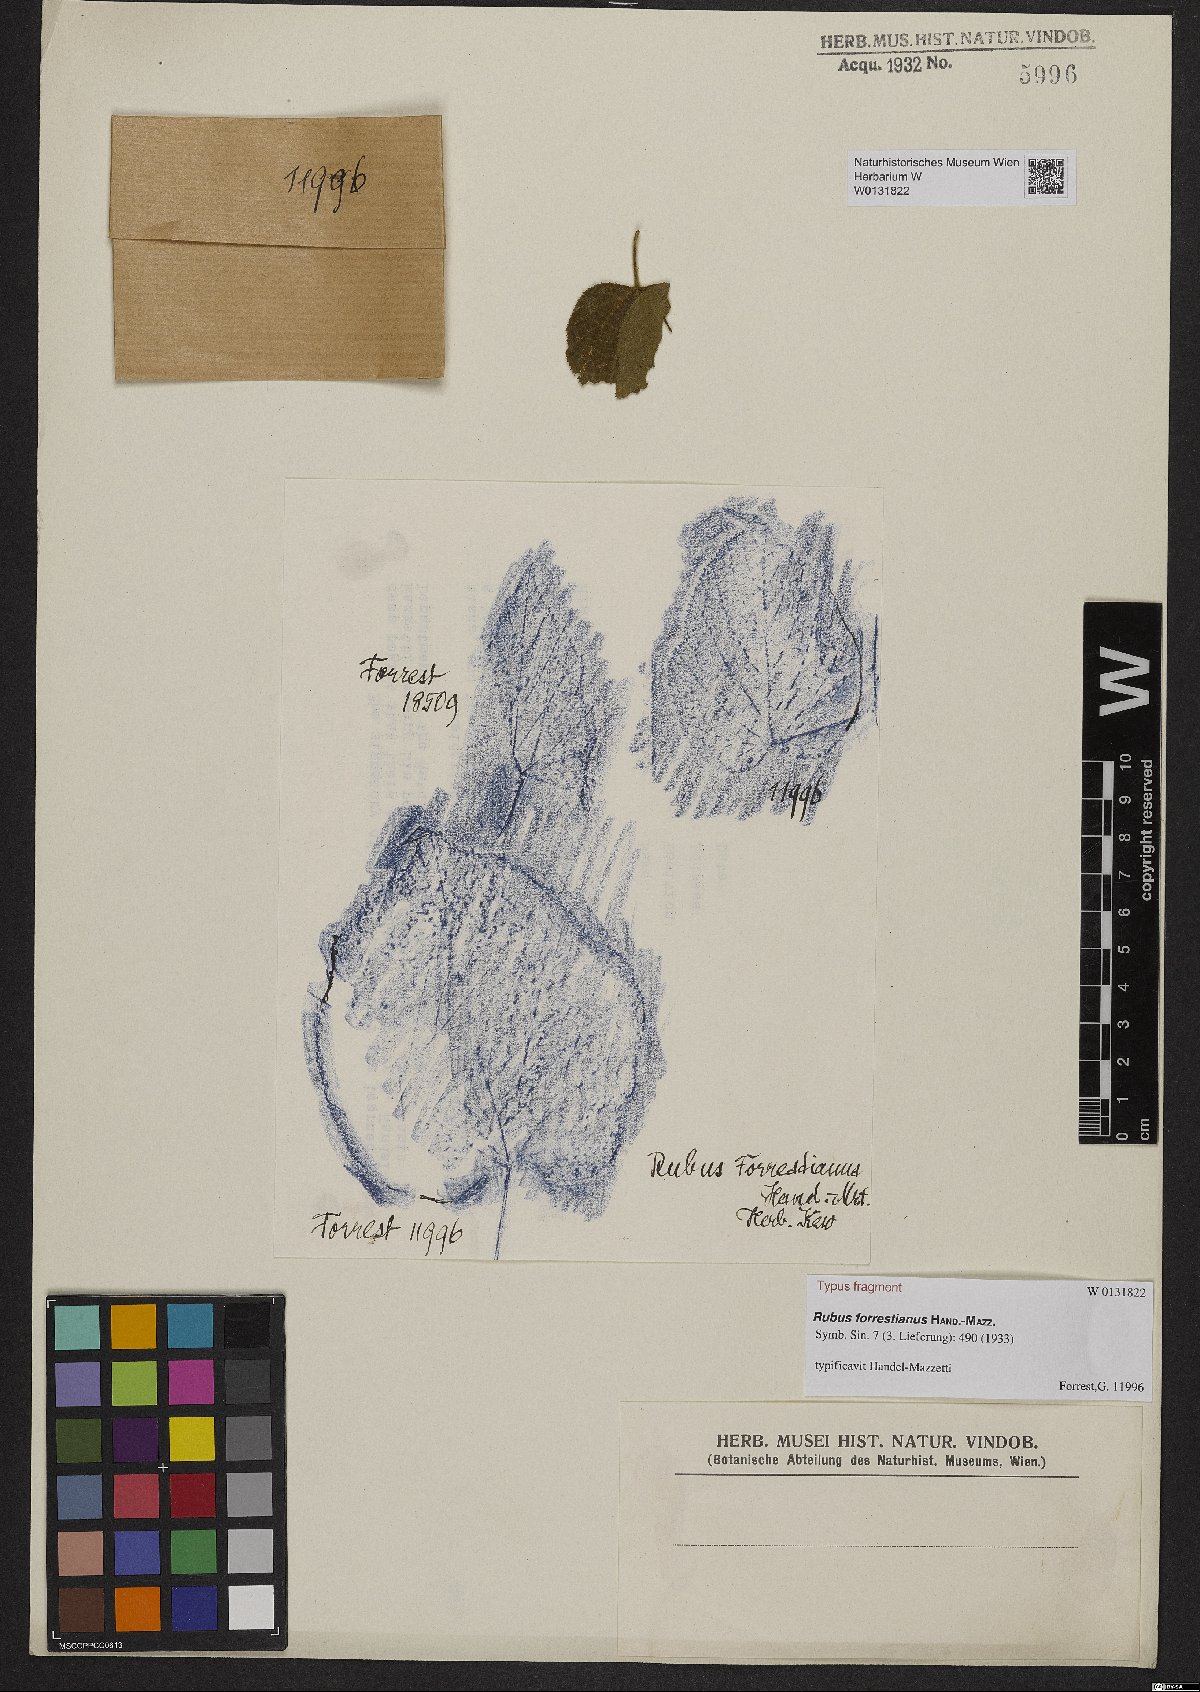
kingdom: Plantae
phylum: Tracheophyta
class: Magnoliopsida
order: Rosales
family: Rosaceae
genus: Rubus
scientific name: Rubus forrestianus
